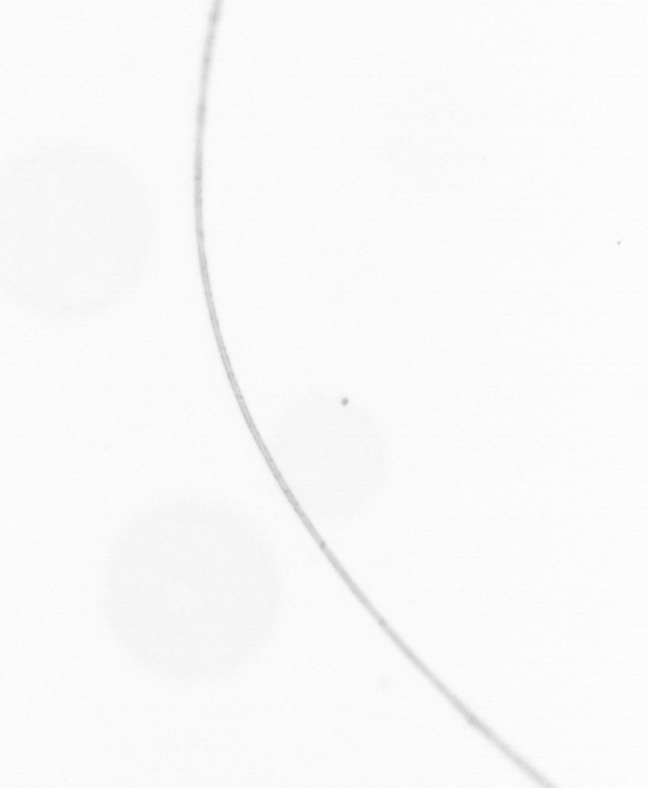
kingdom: Chromista
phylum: Ochrophyta
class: Bacillariophyceae
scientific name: Bacillariophyceae
